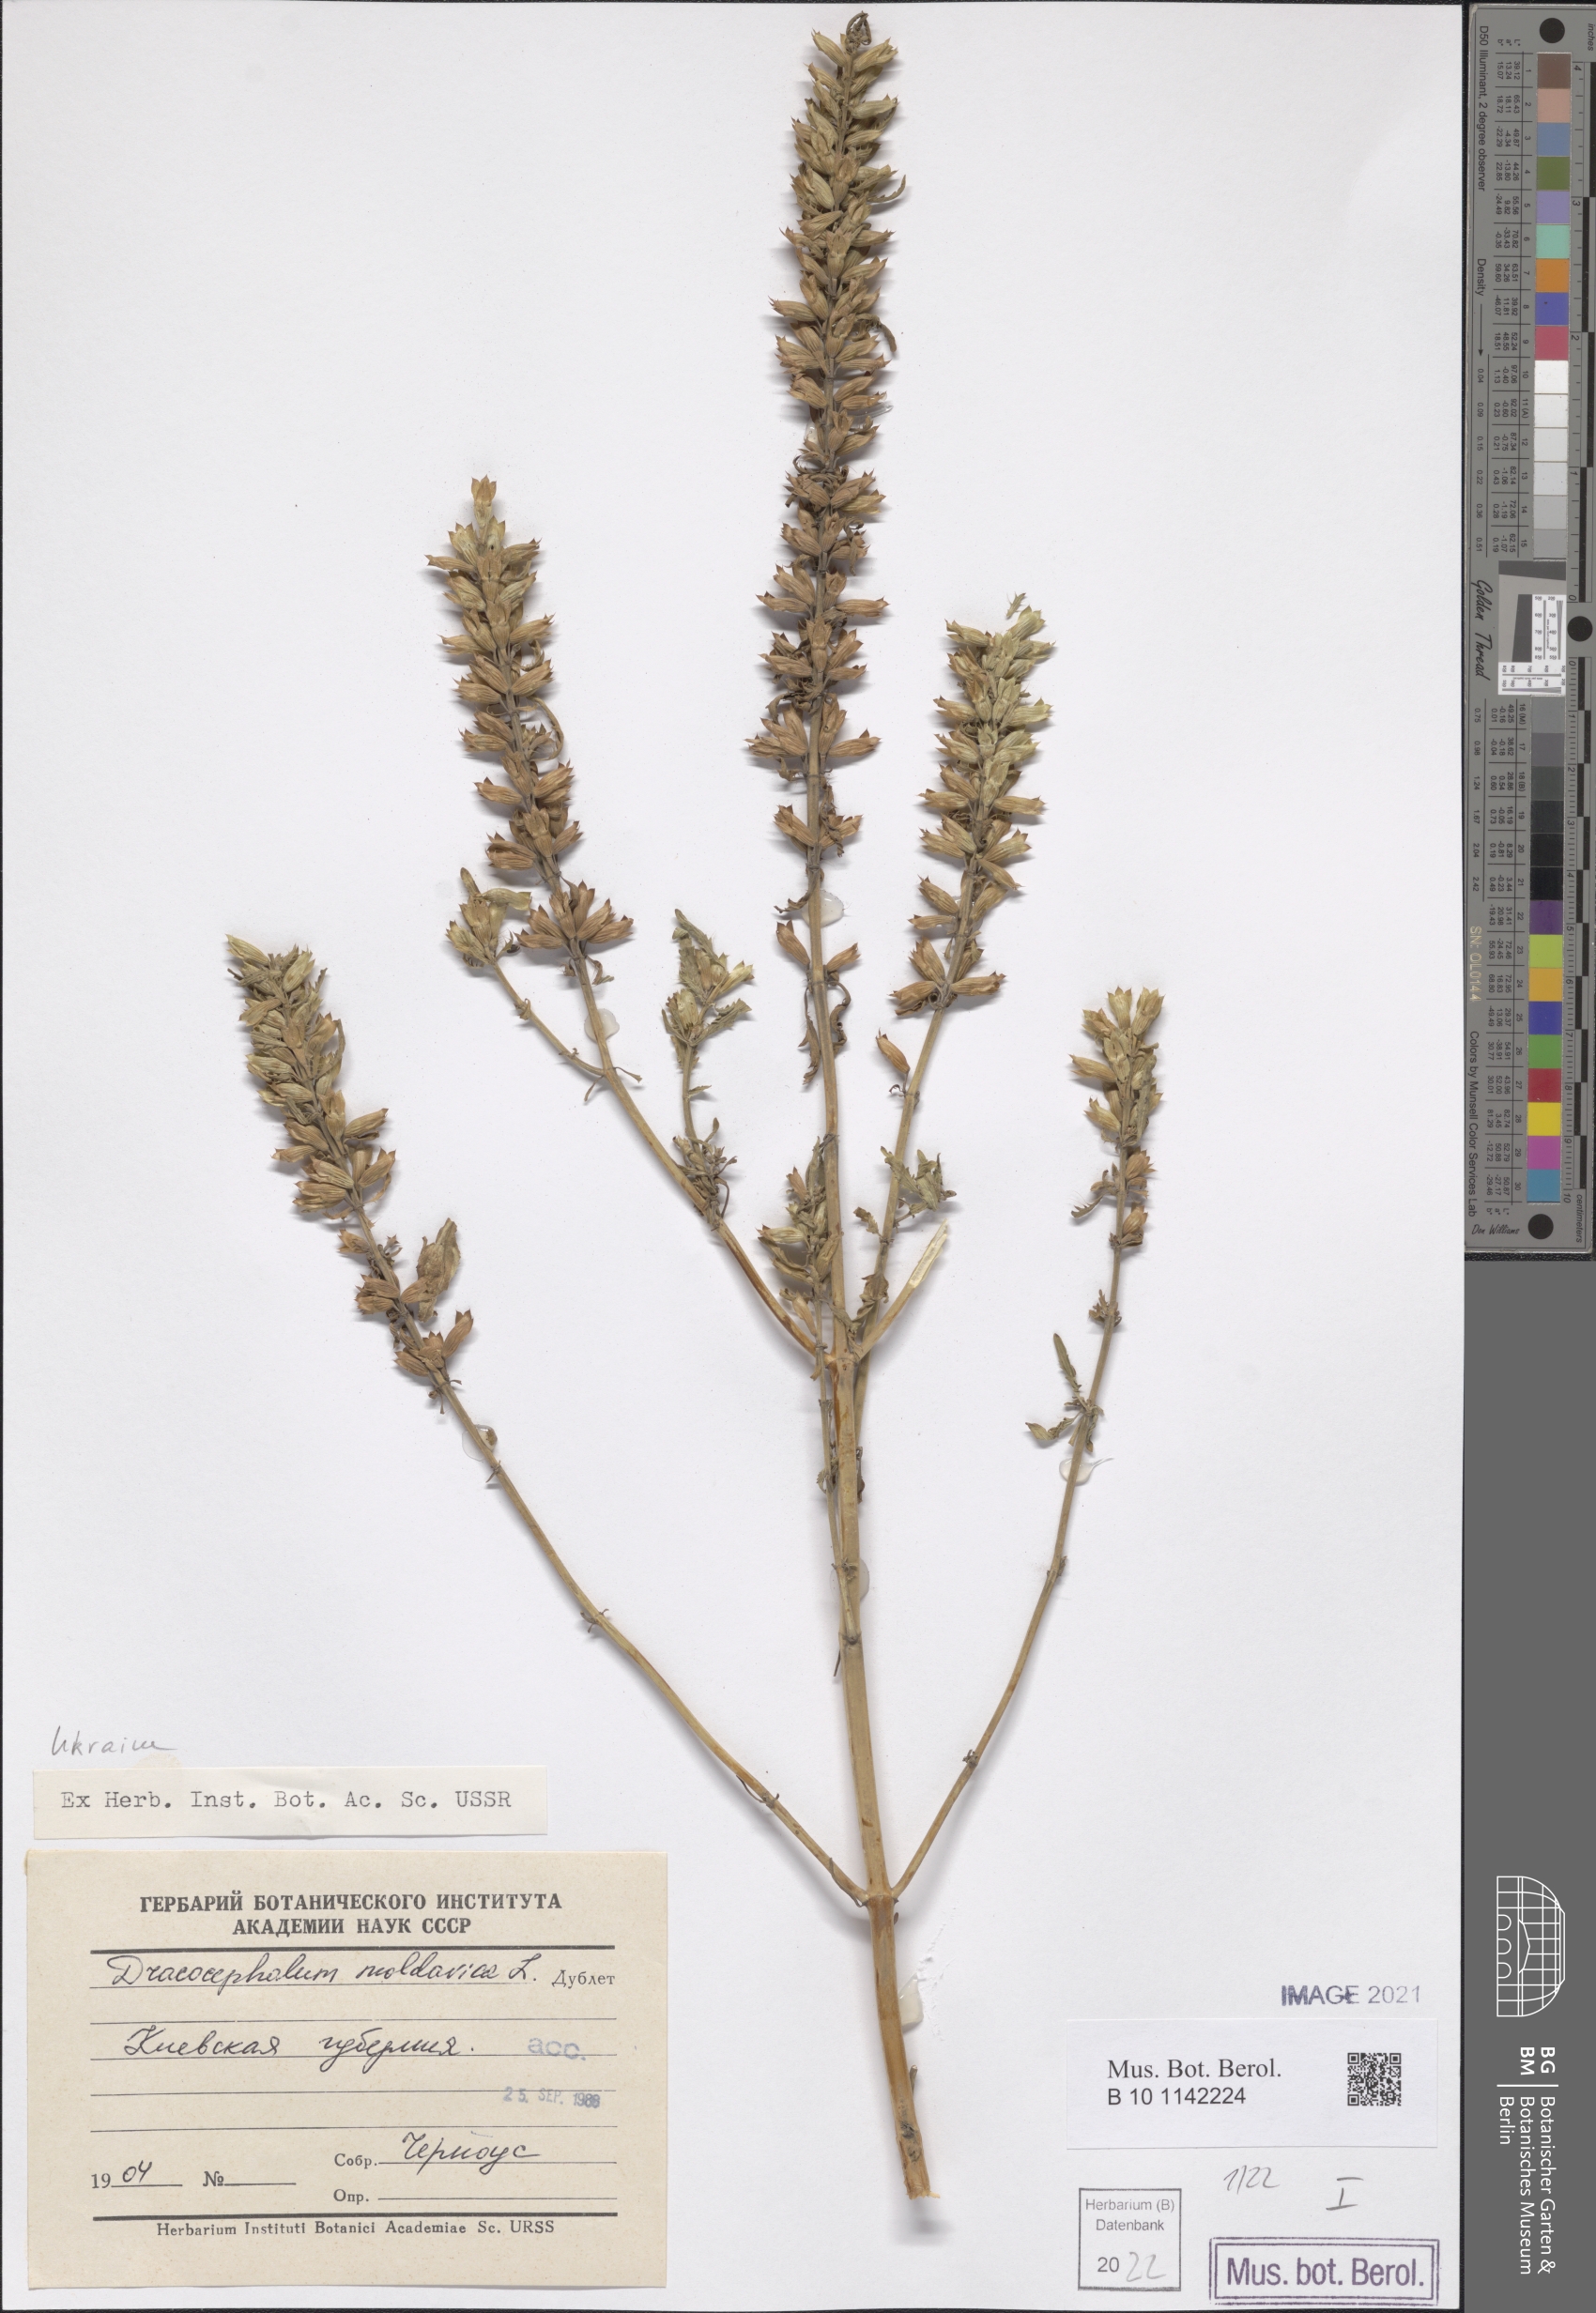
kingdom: Plantae
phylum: Tracheophyta
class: Magnoliopsida
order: Lamiales
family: Lamiaceae
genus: Dracocephalum
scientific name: Dracocephalum moldavica
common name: Moldavian dragonhead
